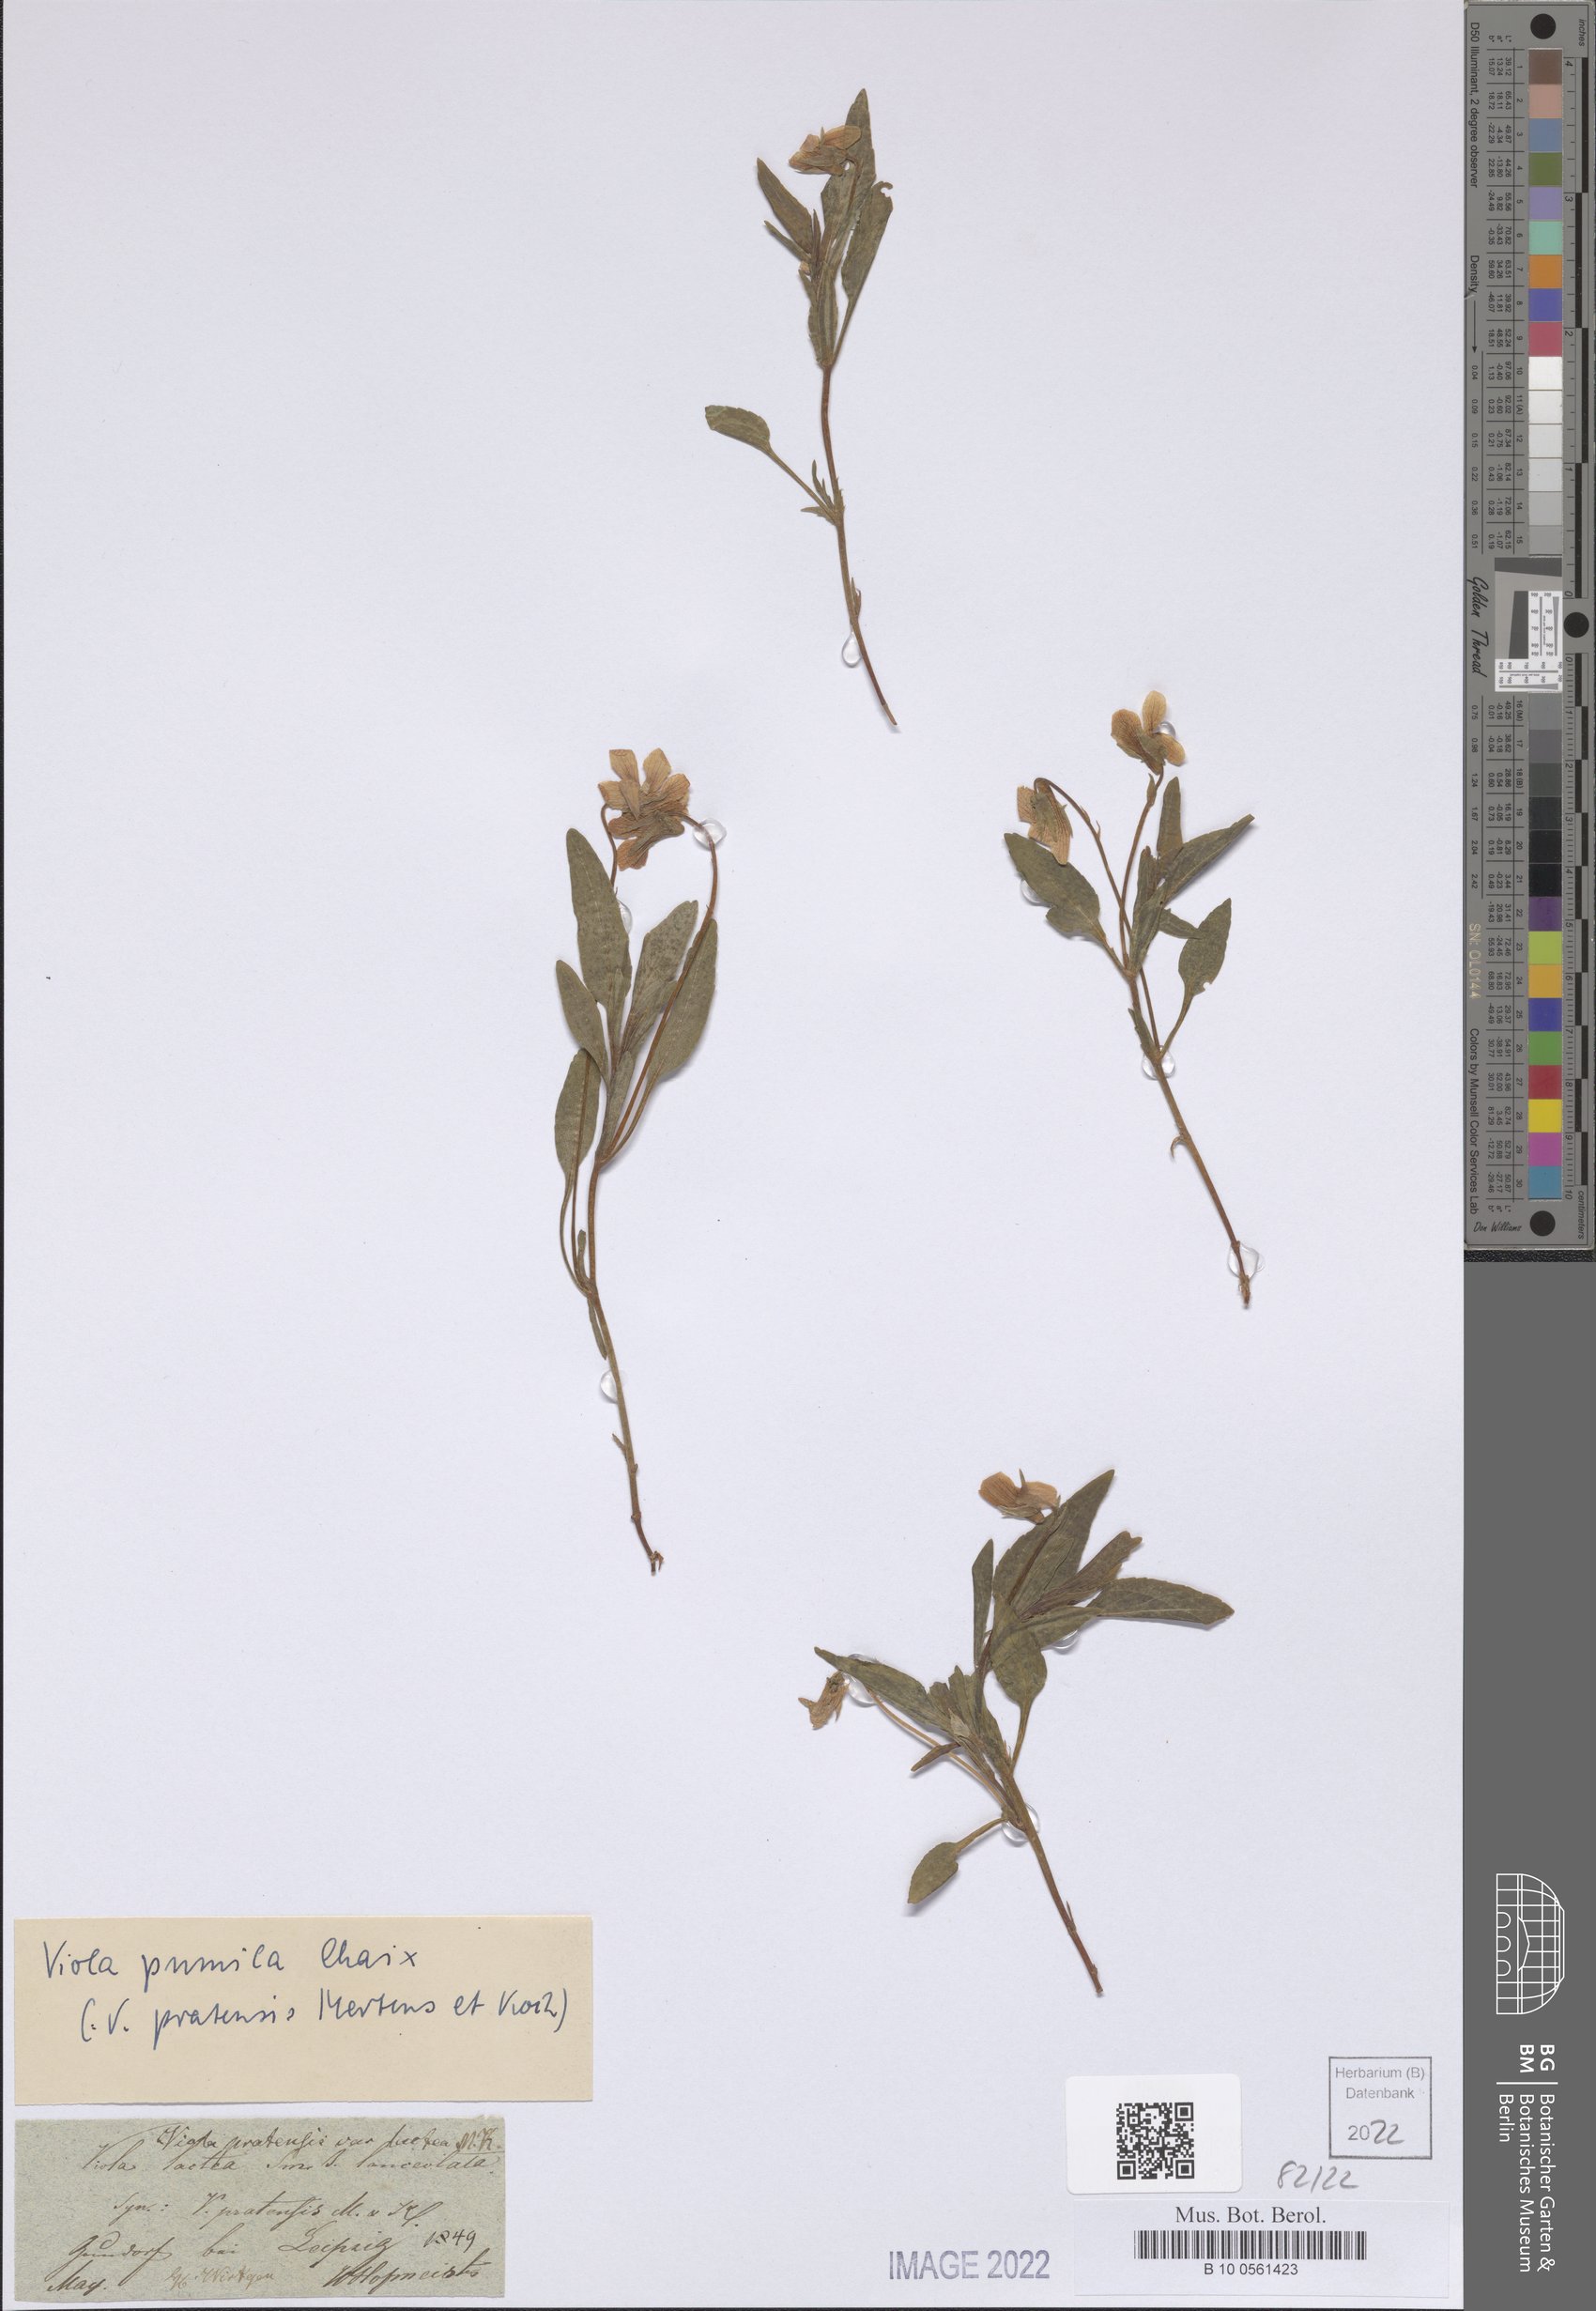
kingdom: Plantae
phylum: Tracheophyta
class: Magnoliopsida
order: Malpighiales
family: Violaceae
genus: Viola
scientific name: Viola pumila
